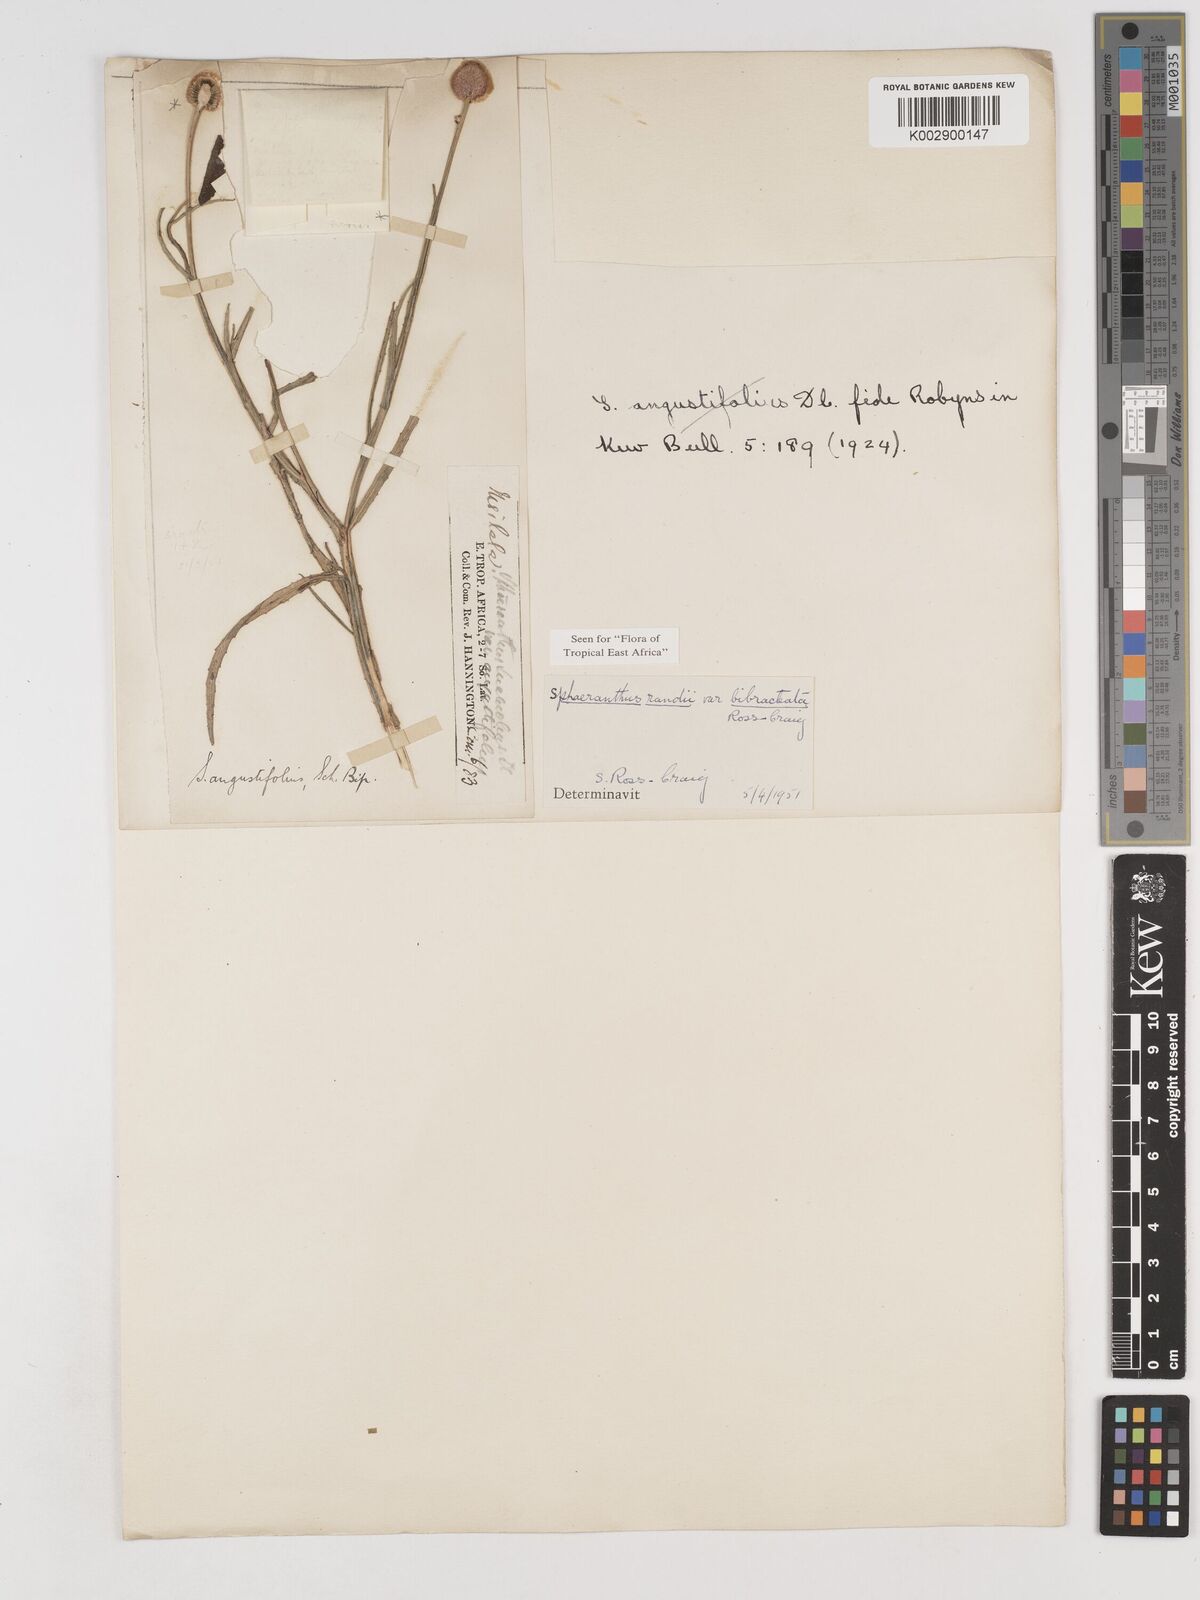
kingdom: Plantae
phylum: Tracheophyta
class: Magnoliopsida
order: Asterales
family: Asteraceae
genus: Sphaeranthus
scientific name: Sphaeranthus randii
